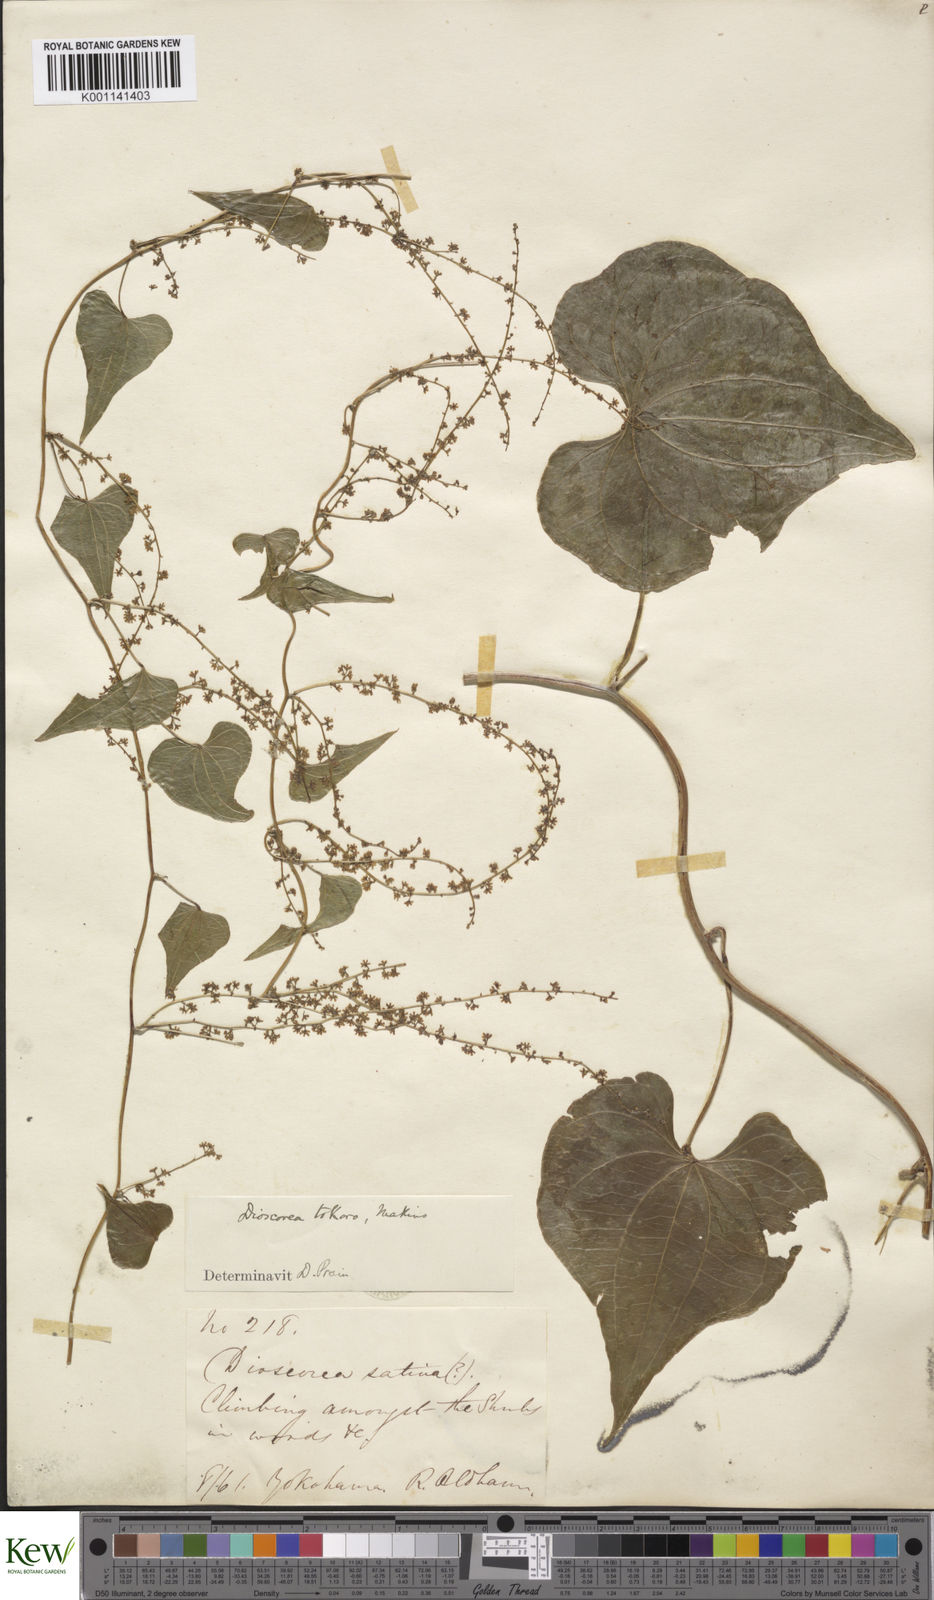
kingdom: Plantae
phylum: Tracheophyta
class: Liliopsida
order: Dioscoreales
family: Dioscoreaceae
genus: Dioscorea
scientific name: Dioscorea tokoro
